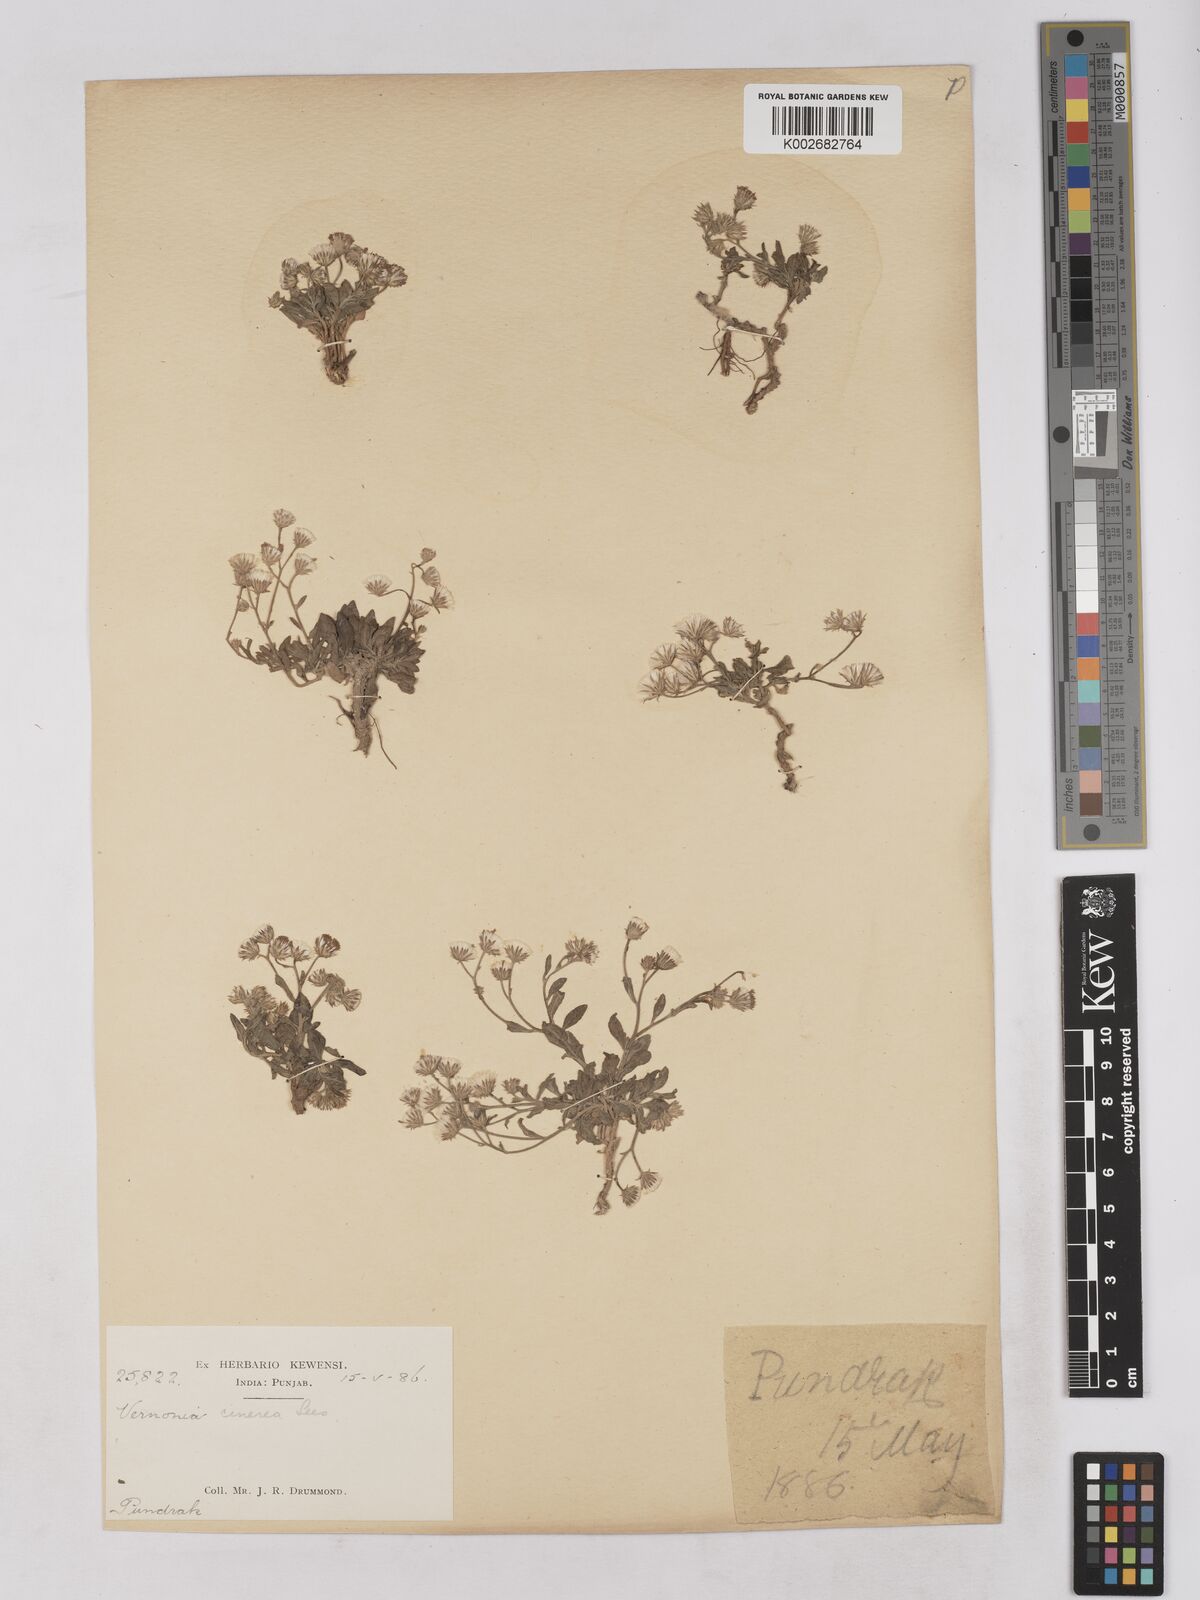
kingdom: Plantae
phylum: Tracheophyta
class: Magnoliopsida
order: Asterales
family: Asteraceae
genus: Cyanthillium
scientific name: Cyanthillium cinereum
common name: Little ironweed
